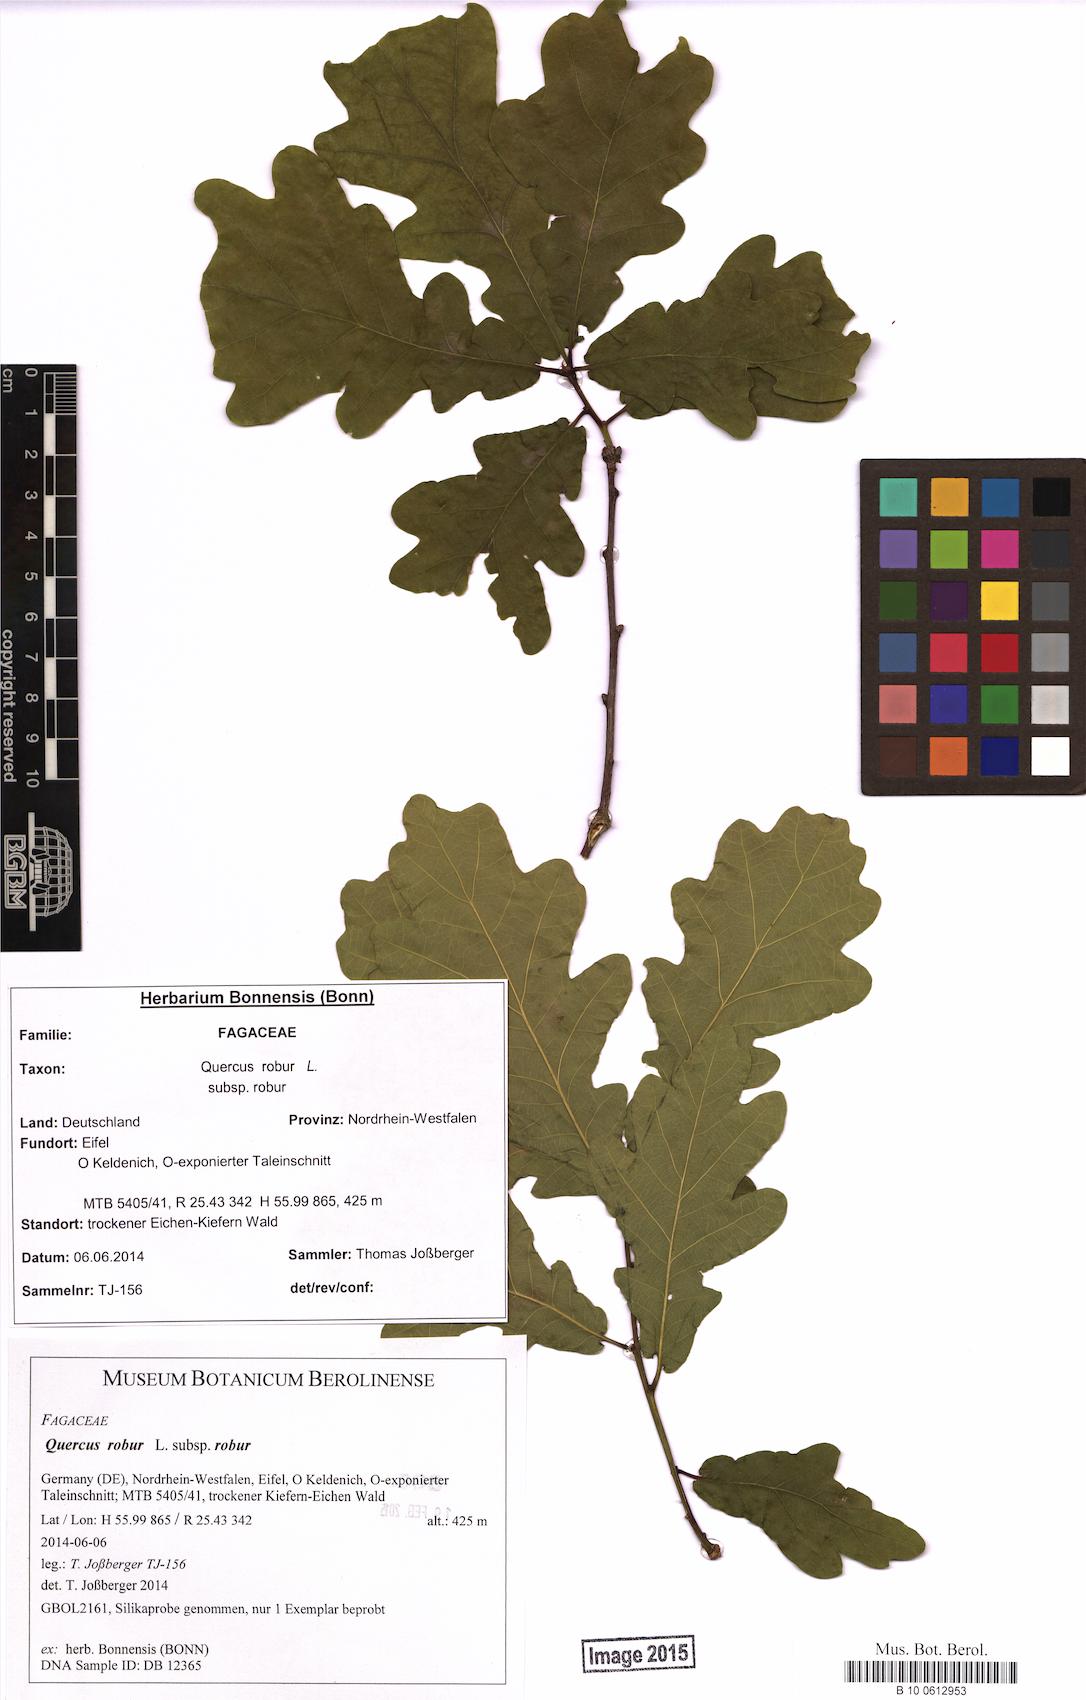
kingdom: Plantae
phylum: Tracheophyta
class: Magnoliopsida
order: Fagales
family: Fagaceae
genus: Quercus
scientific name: Quercus robur
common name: Pedunculate oak
